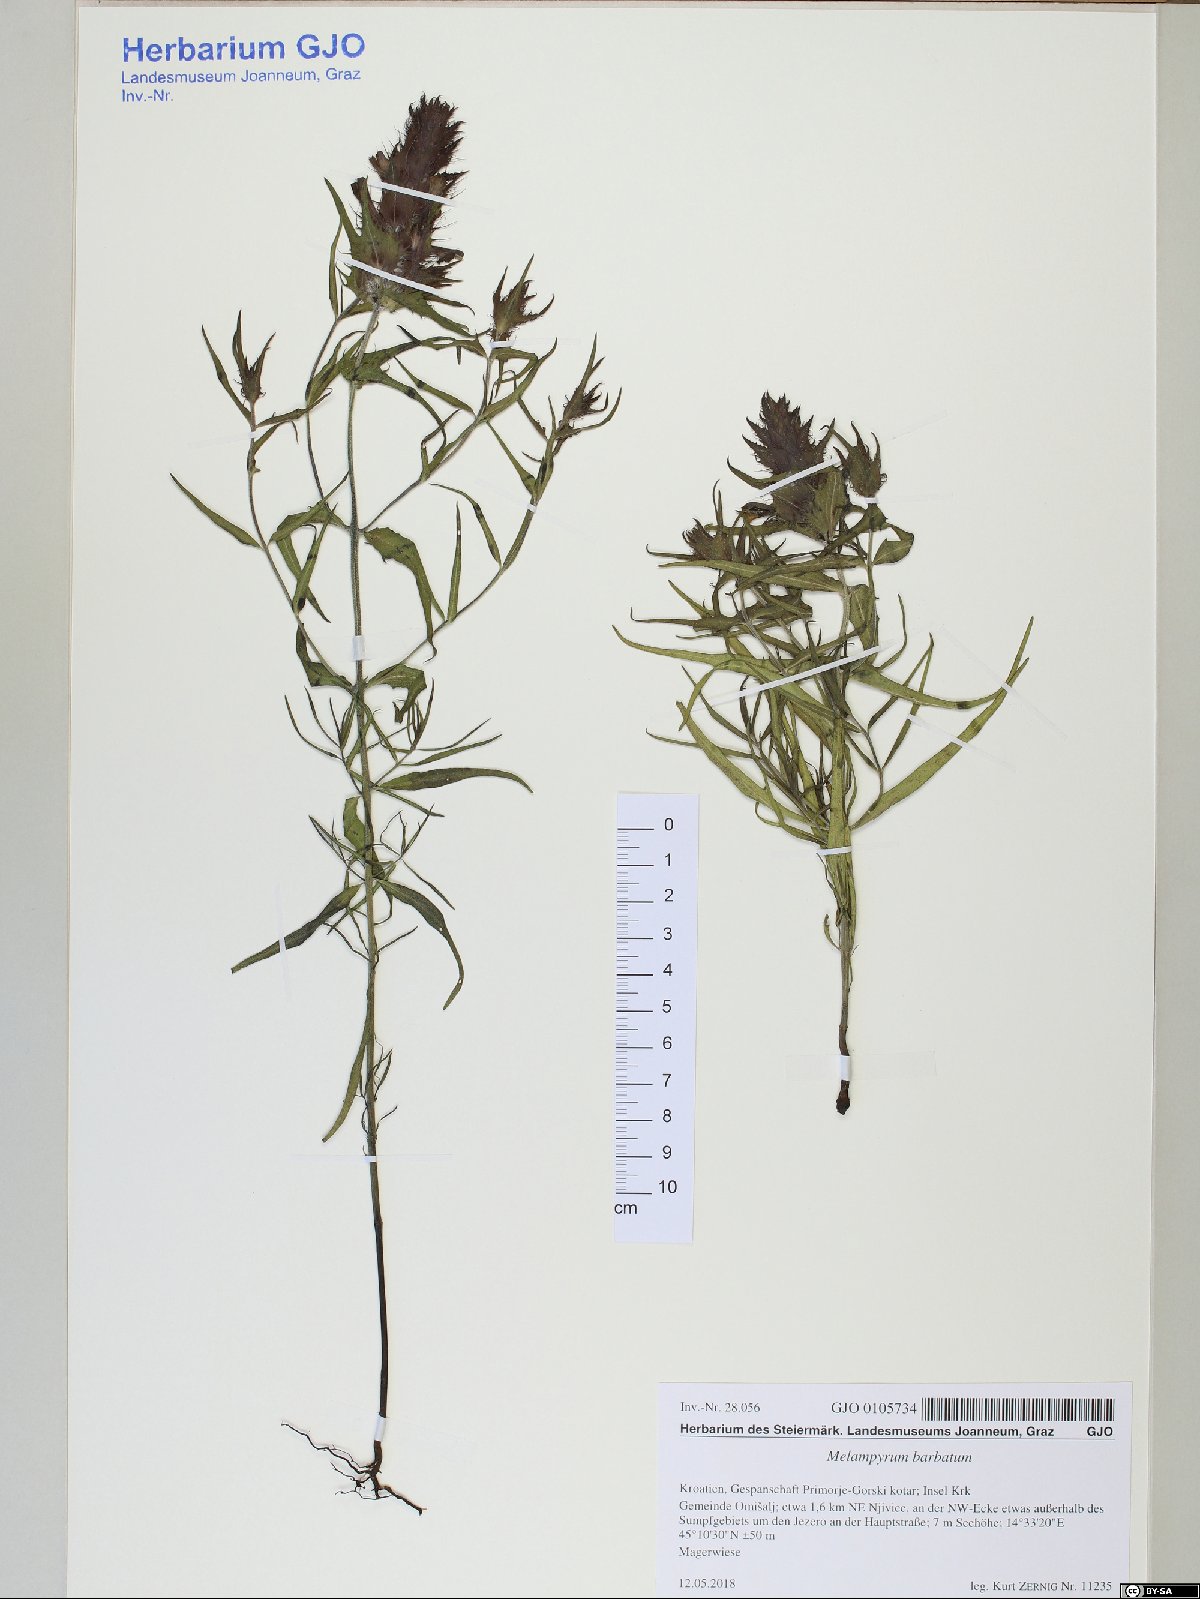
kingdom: Plantae
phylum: Tracheophyta
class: Magnoliopsida
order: Lamiales
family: Orobanchaceae
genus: Melampyrum
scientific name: Melampyrum barbatum
